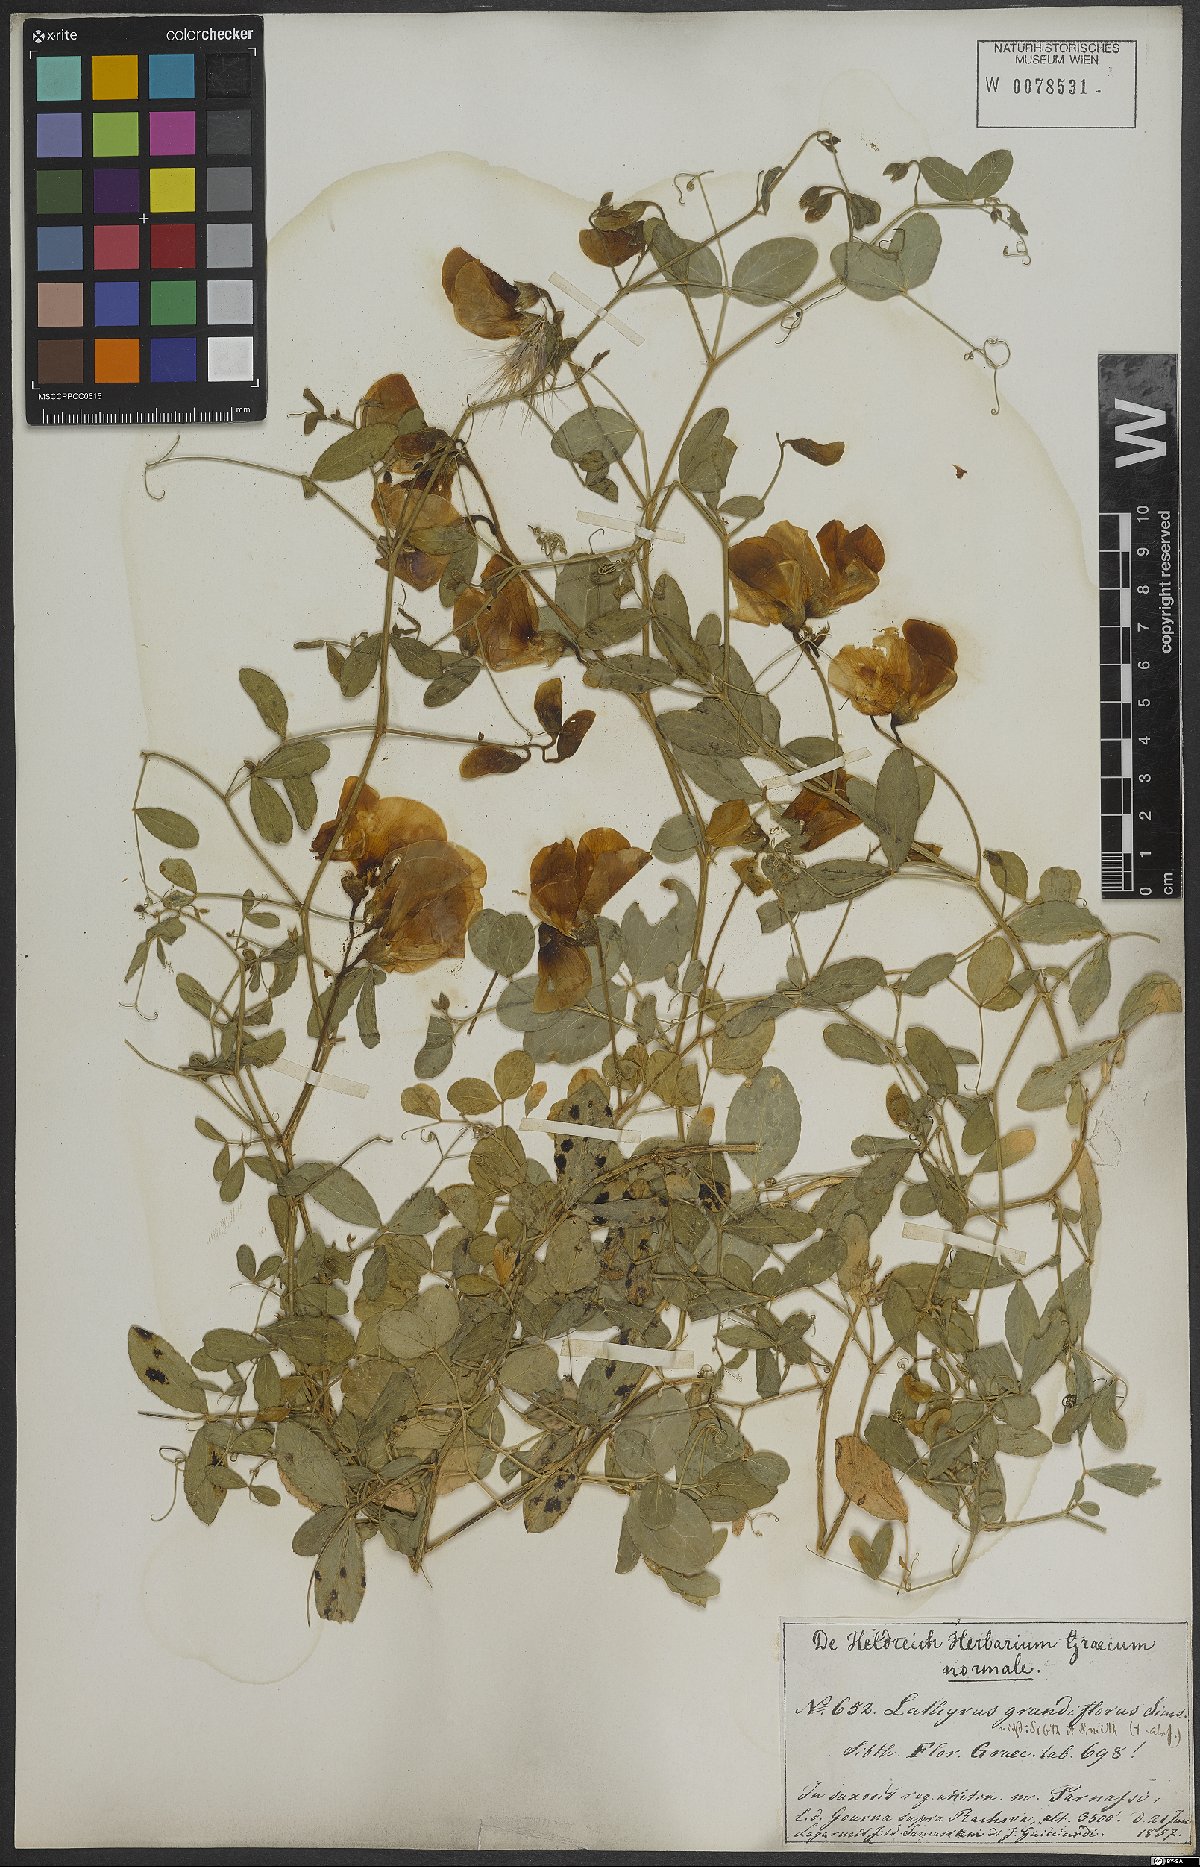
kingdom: Plantae
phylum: Tracheophyta
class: Magnoliopsida
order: Fabales
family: Fabaceae
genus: Lathyrus
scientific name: Lathyrus grandiflorus
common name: Two-flowered everlasting-pea
